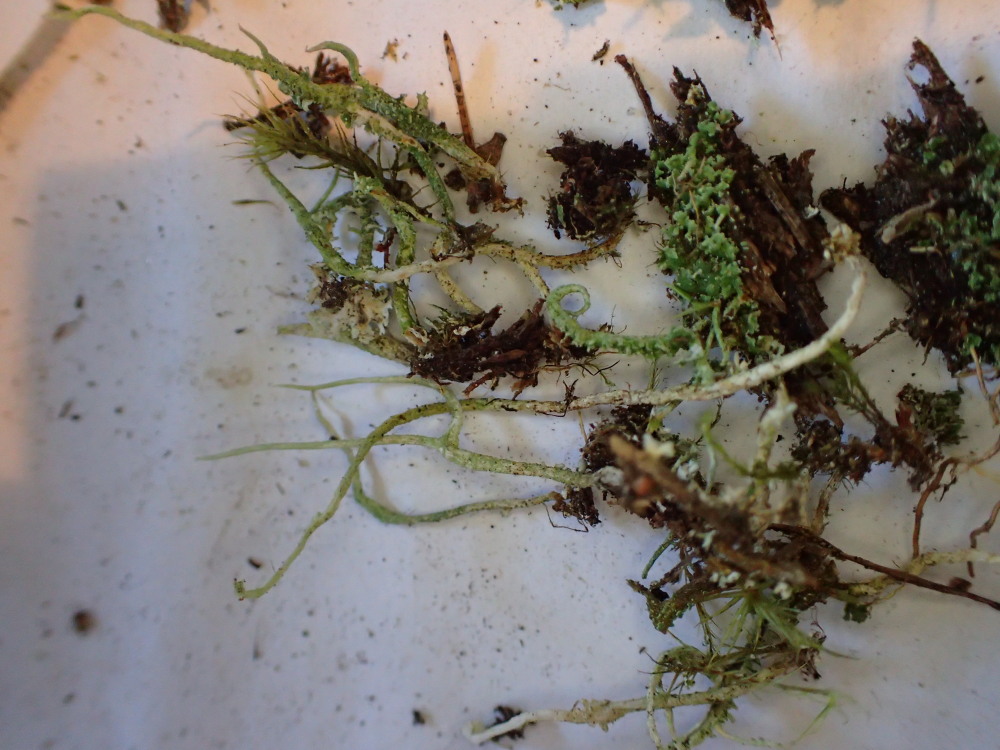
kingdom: Fungi
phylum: Ascomycota
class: Lecanoromycetes
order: Lecanorales
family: Cladoniaceae
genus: Cladonia
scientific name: Cladonia glauca
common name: grågrøn bægerlav
